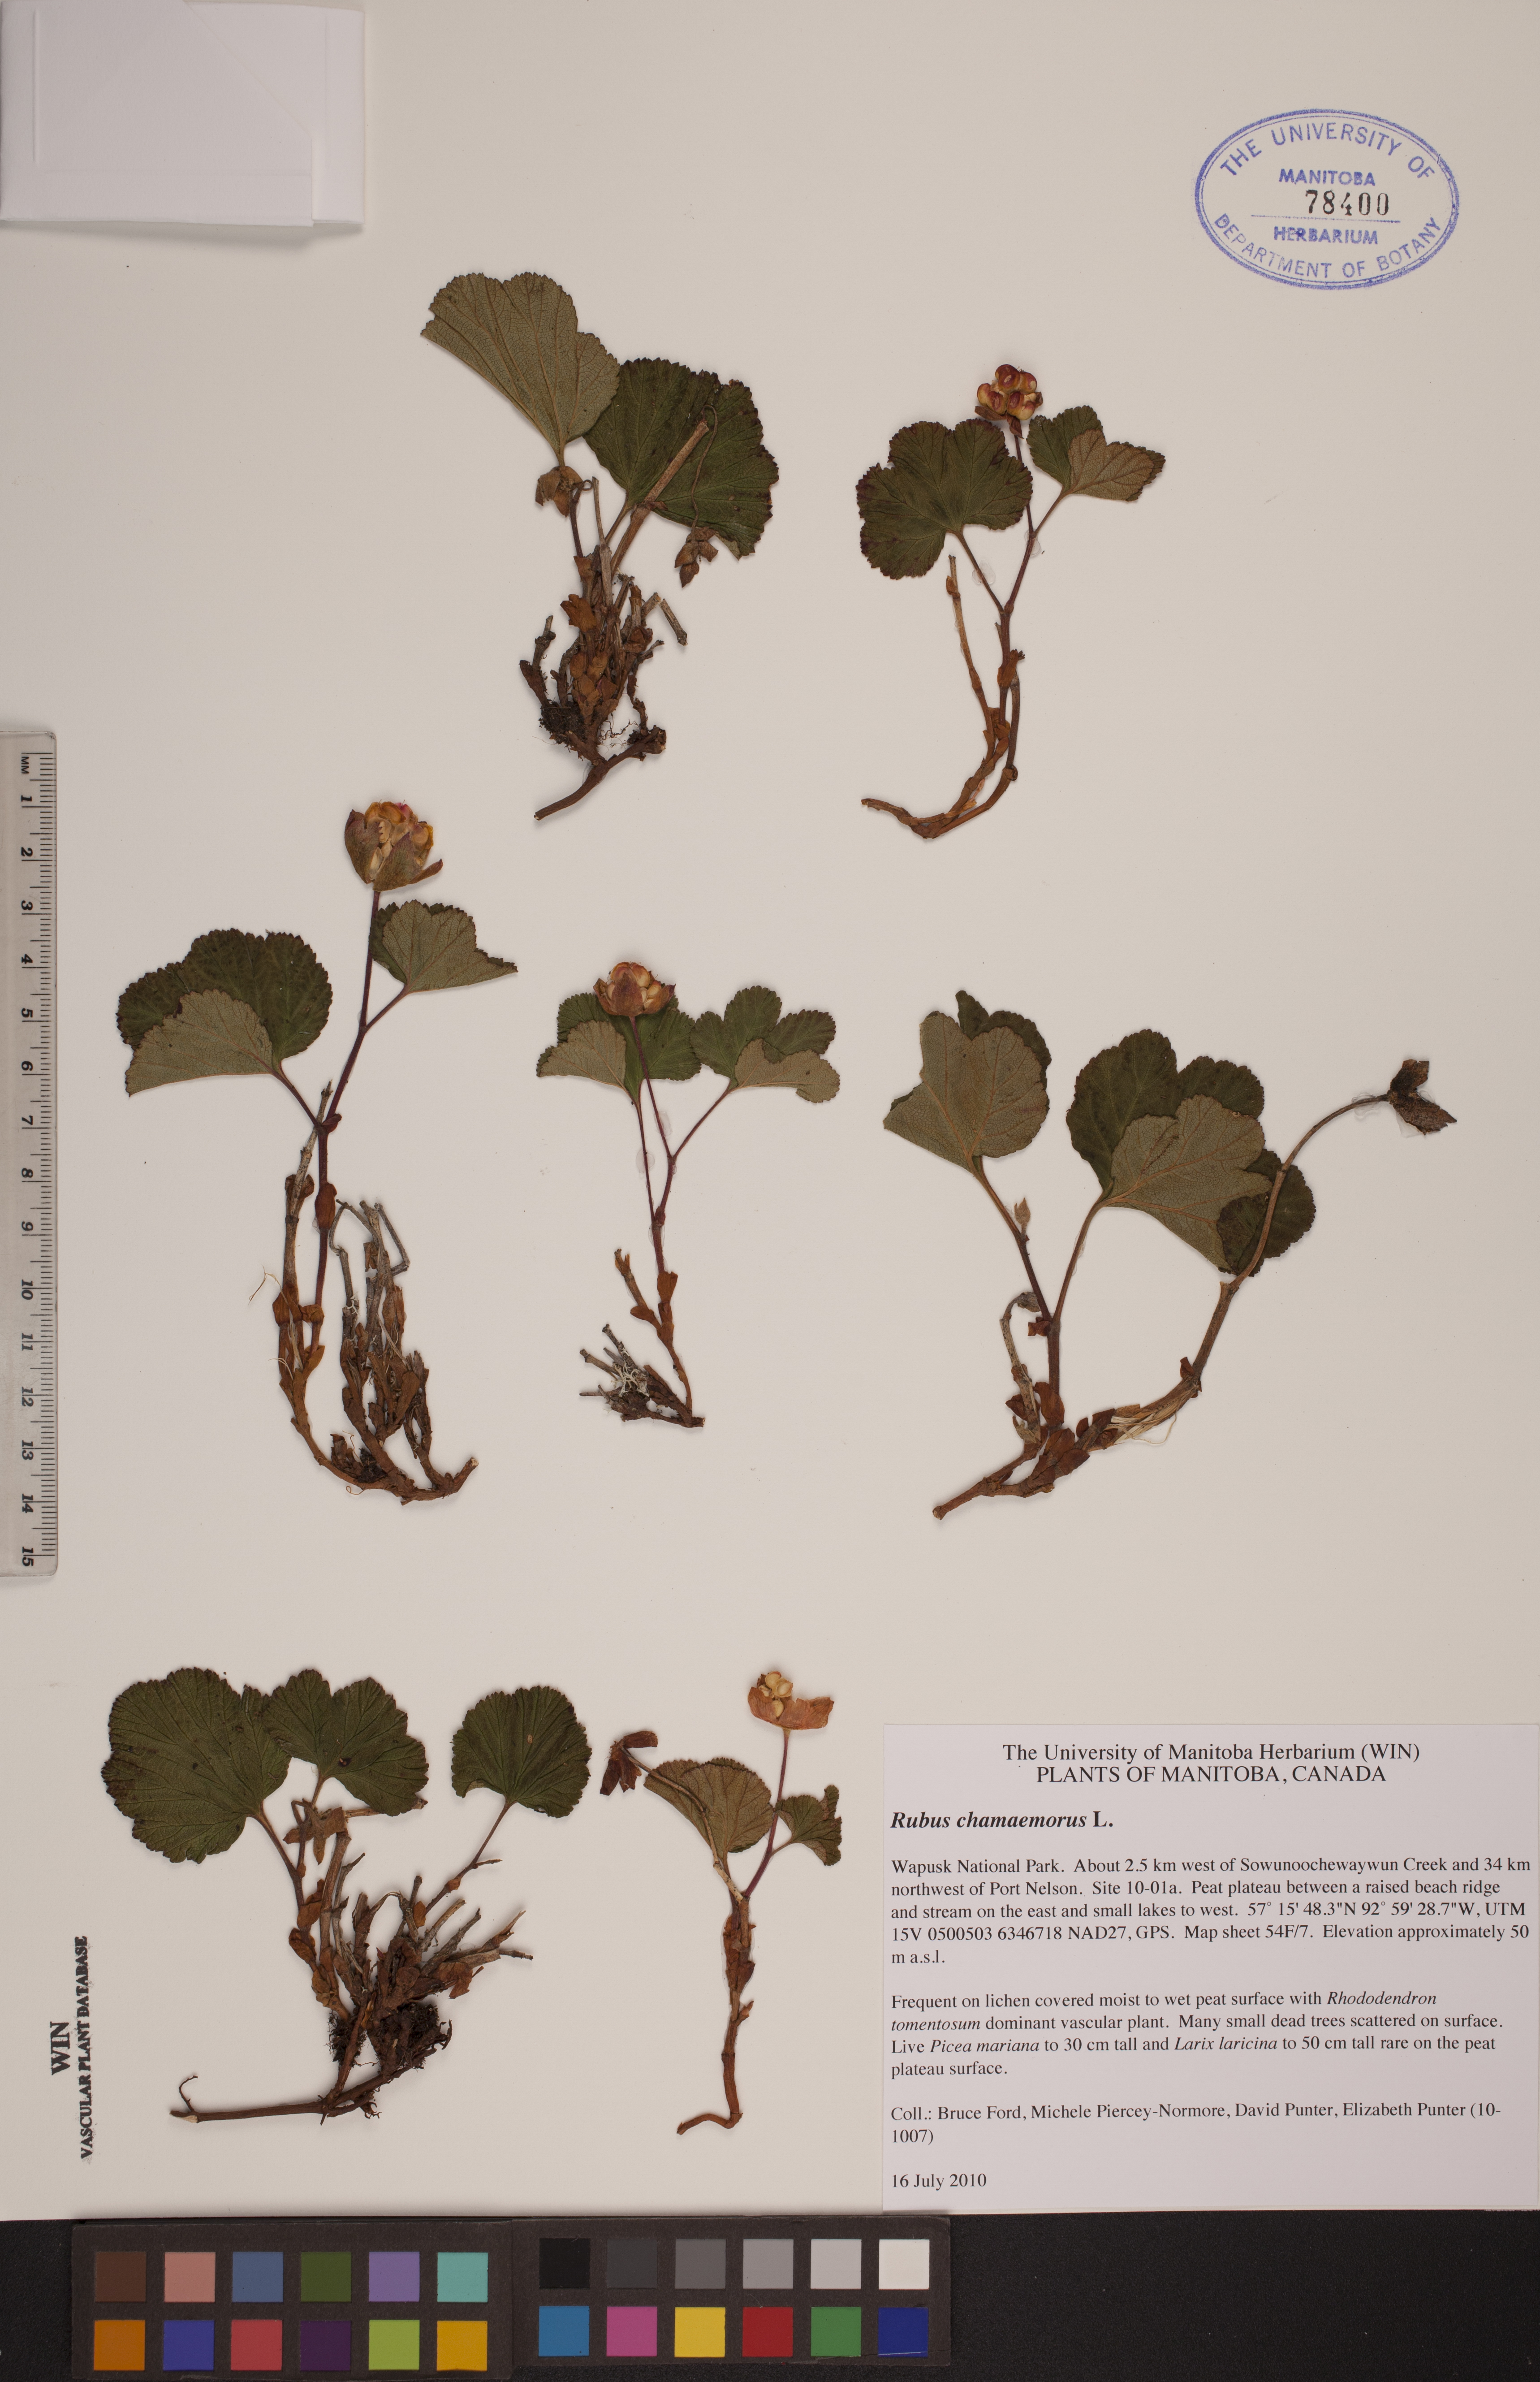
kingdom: Plantae
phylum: Tracheophyta
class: Magnoliopsida
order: Rosales
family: Rosaceae
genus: Rubus
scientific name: Rubus chamaemorus
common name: Cloudberry
